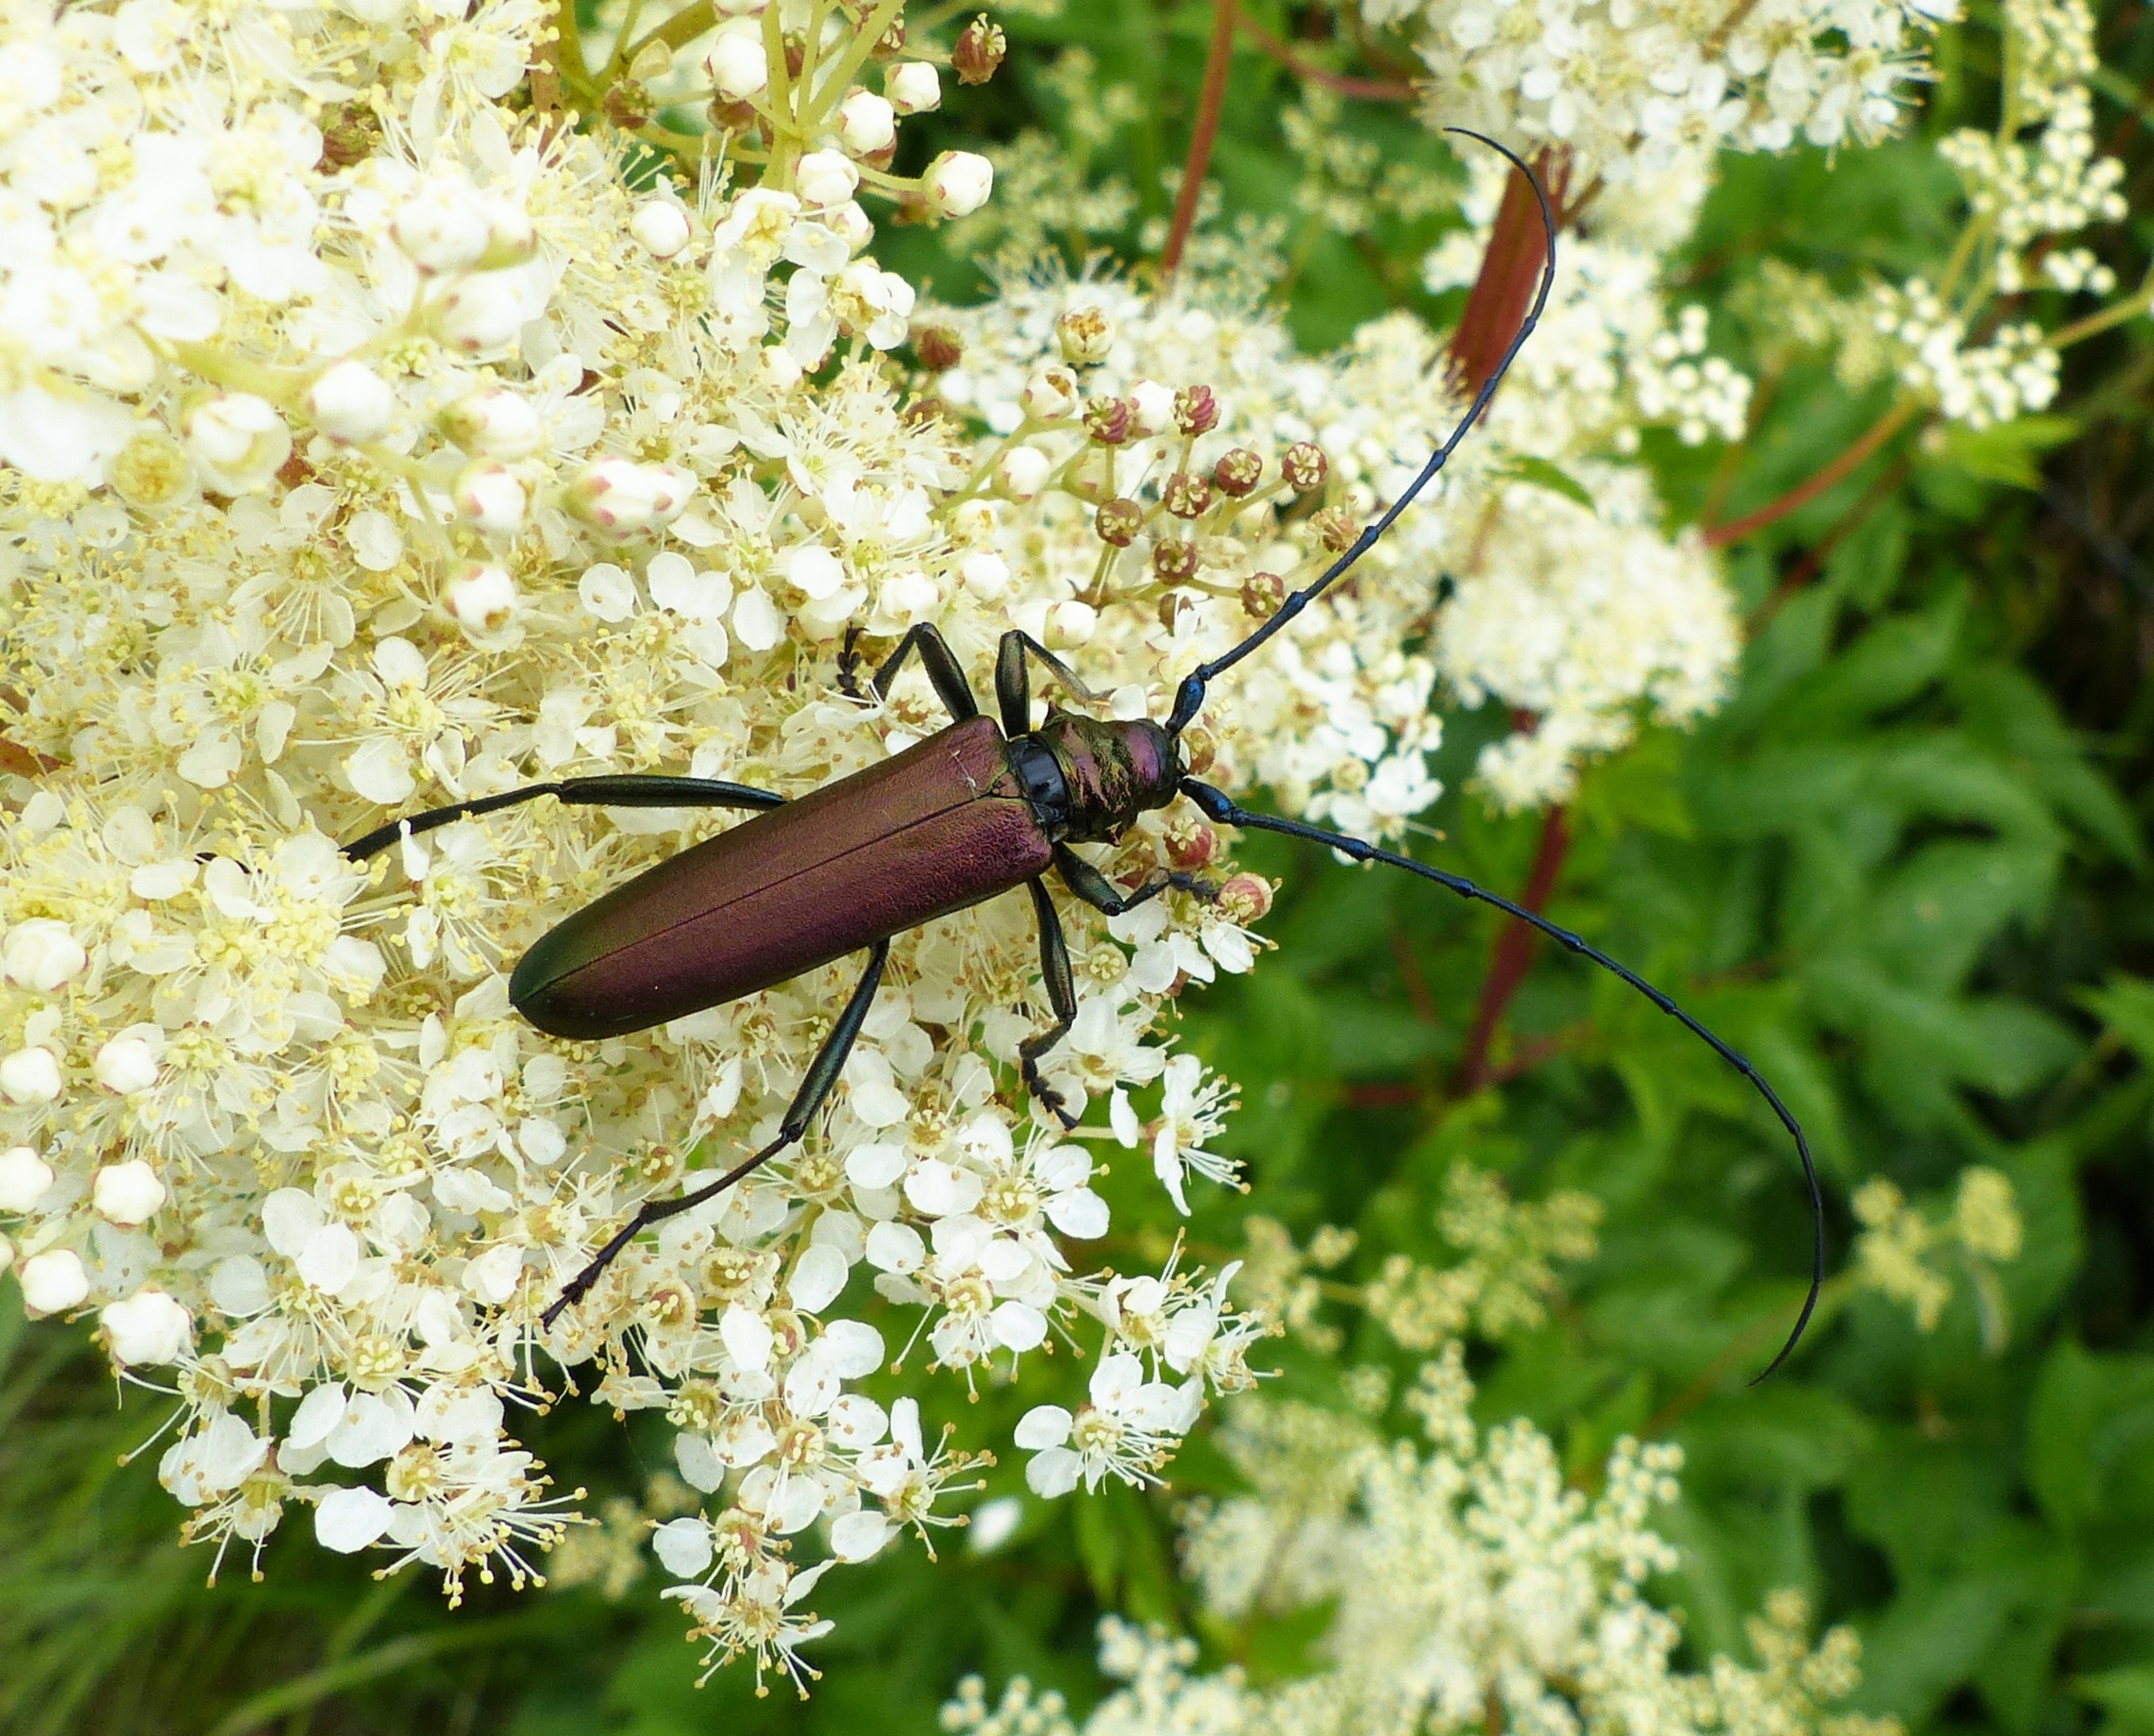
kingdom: Animalia
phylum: Arthropoda
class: Insecta
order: Coleoptera
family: Cerambycidae
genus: Aromia
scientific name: Aromia moschata
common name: Moskusbuk
